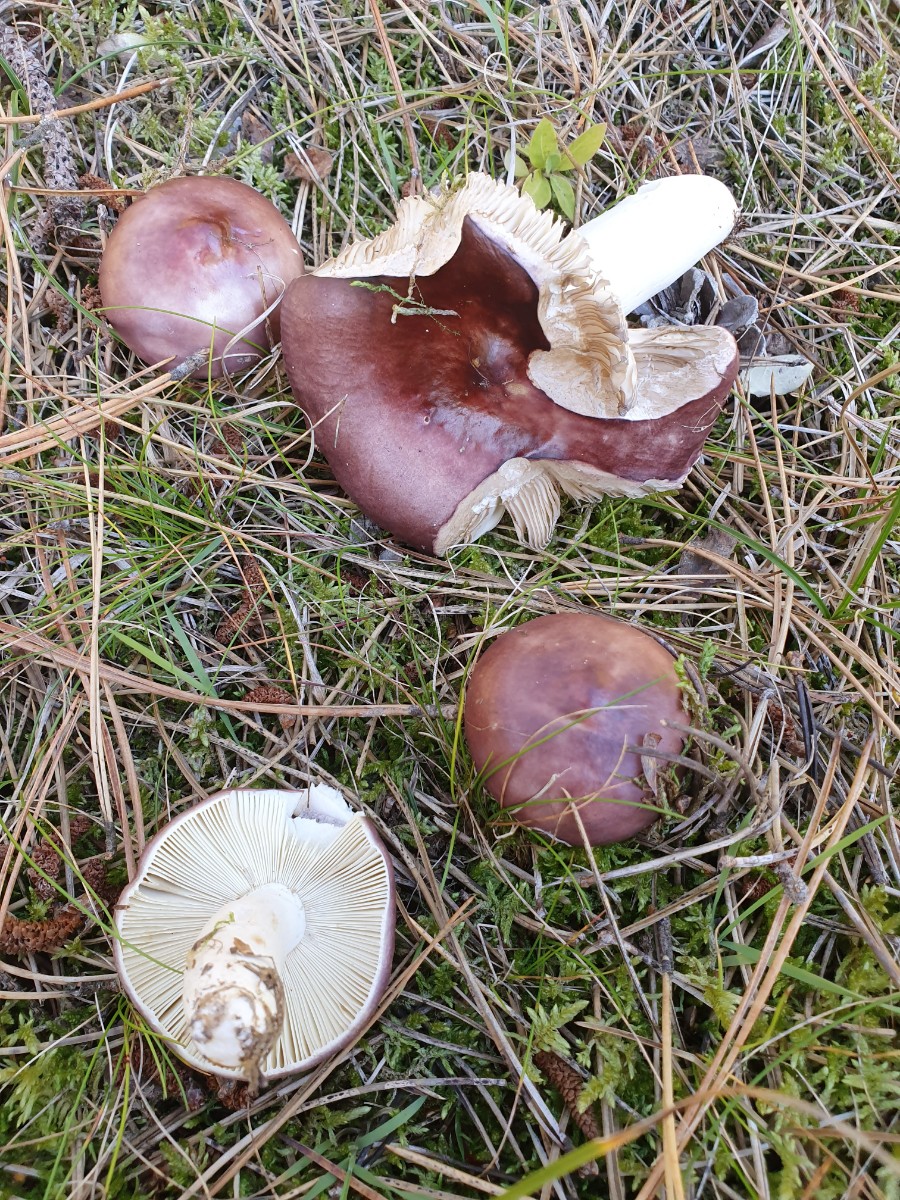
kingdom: Fungi
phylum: Basidiomycota
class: Agaricomycetes
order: Russulales
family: Russulaceae
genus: Russula
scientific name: Russula caerulea
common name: puklet skørhat
